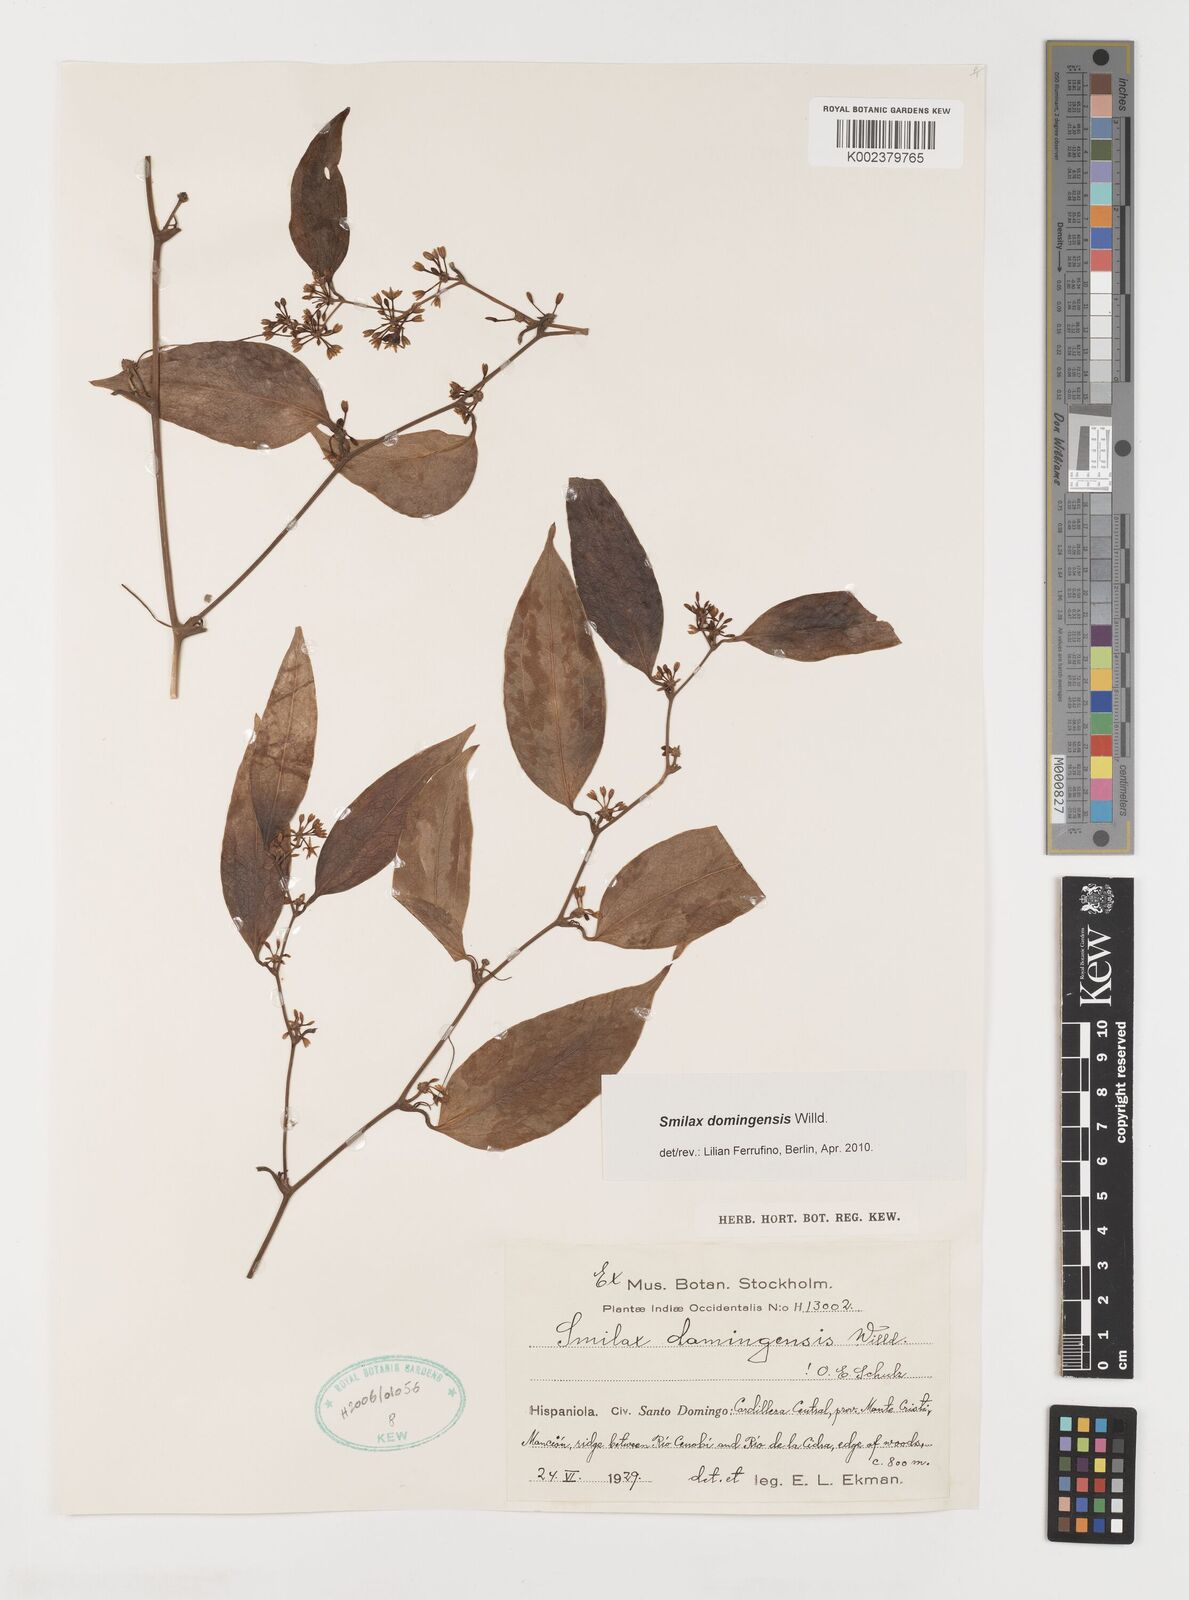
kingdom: Plantae
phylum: Tracheophyta
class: Liliopsida
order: Liliales
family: Smilacaceae
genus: Smilax
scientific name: Smilax domingensis
